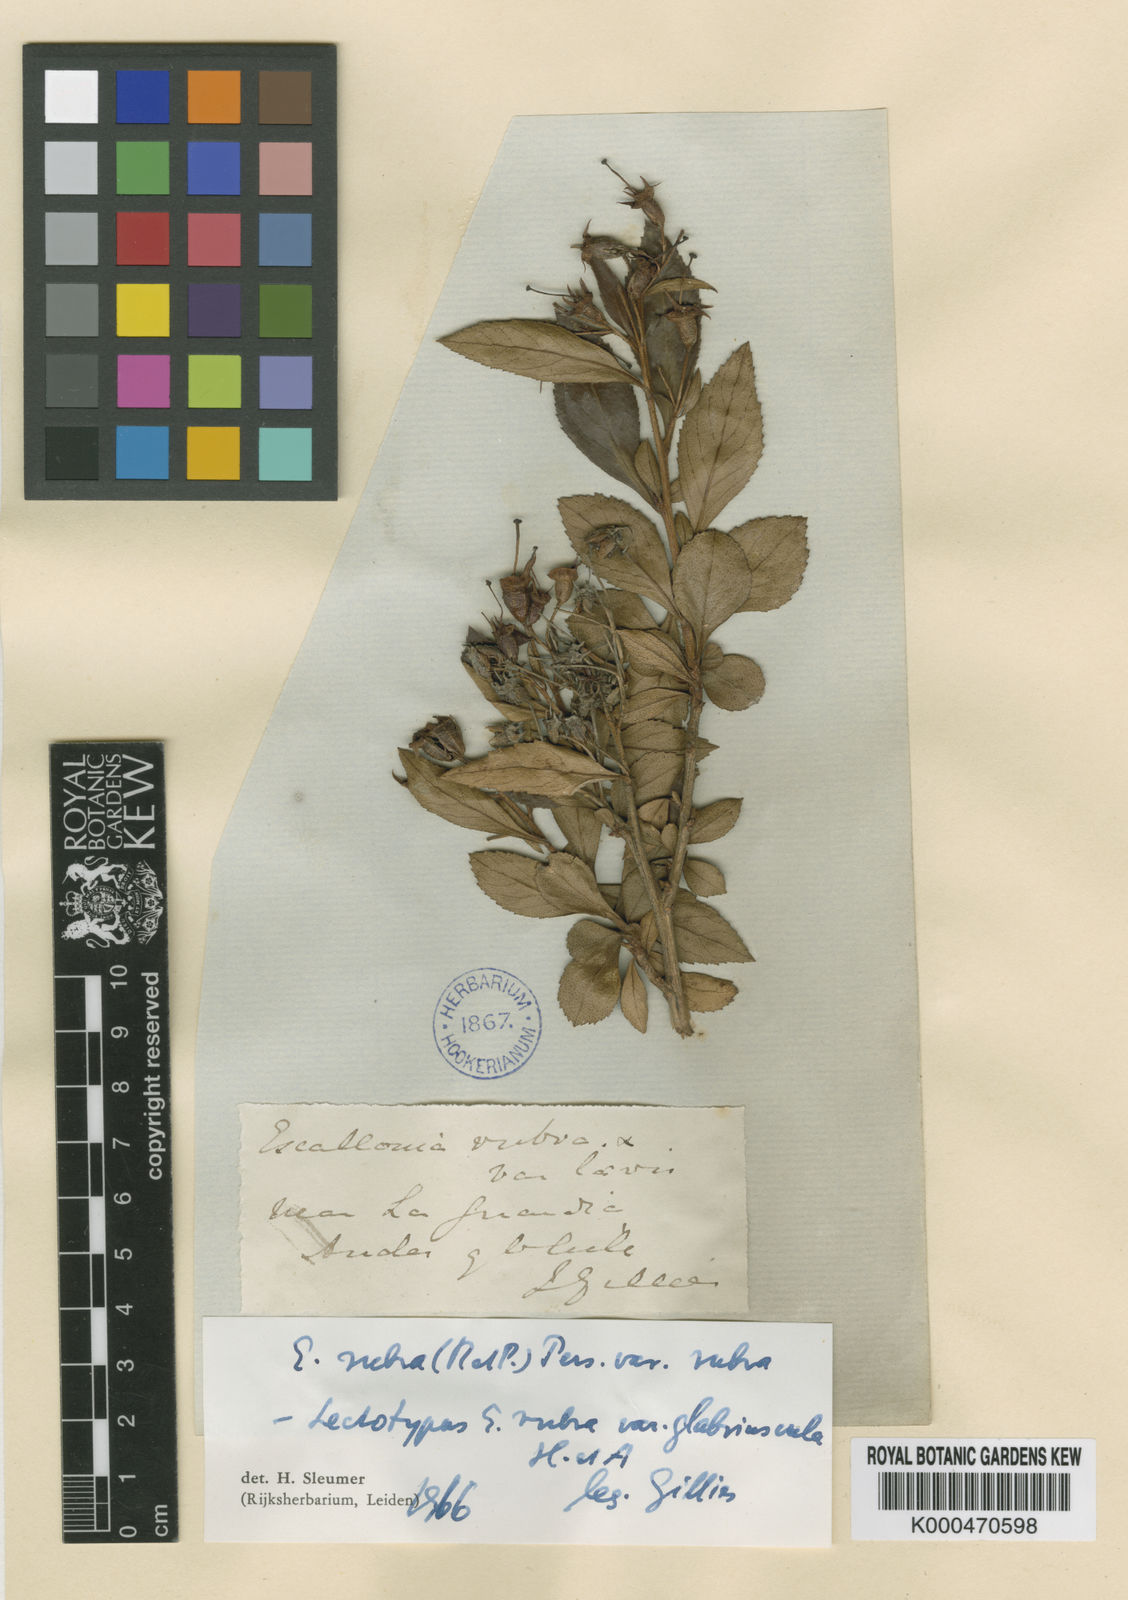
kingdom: Plantae
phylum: Tracheophyta
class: Magnoliopsida
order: Escalloniales
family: Escalloniaceae
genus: Escallonia
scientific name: Escallonia rubra
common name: Redclaws
